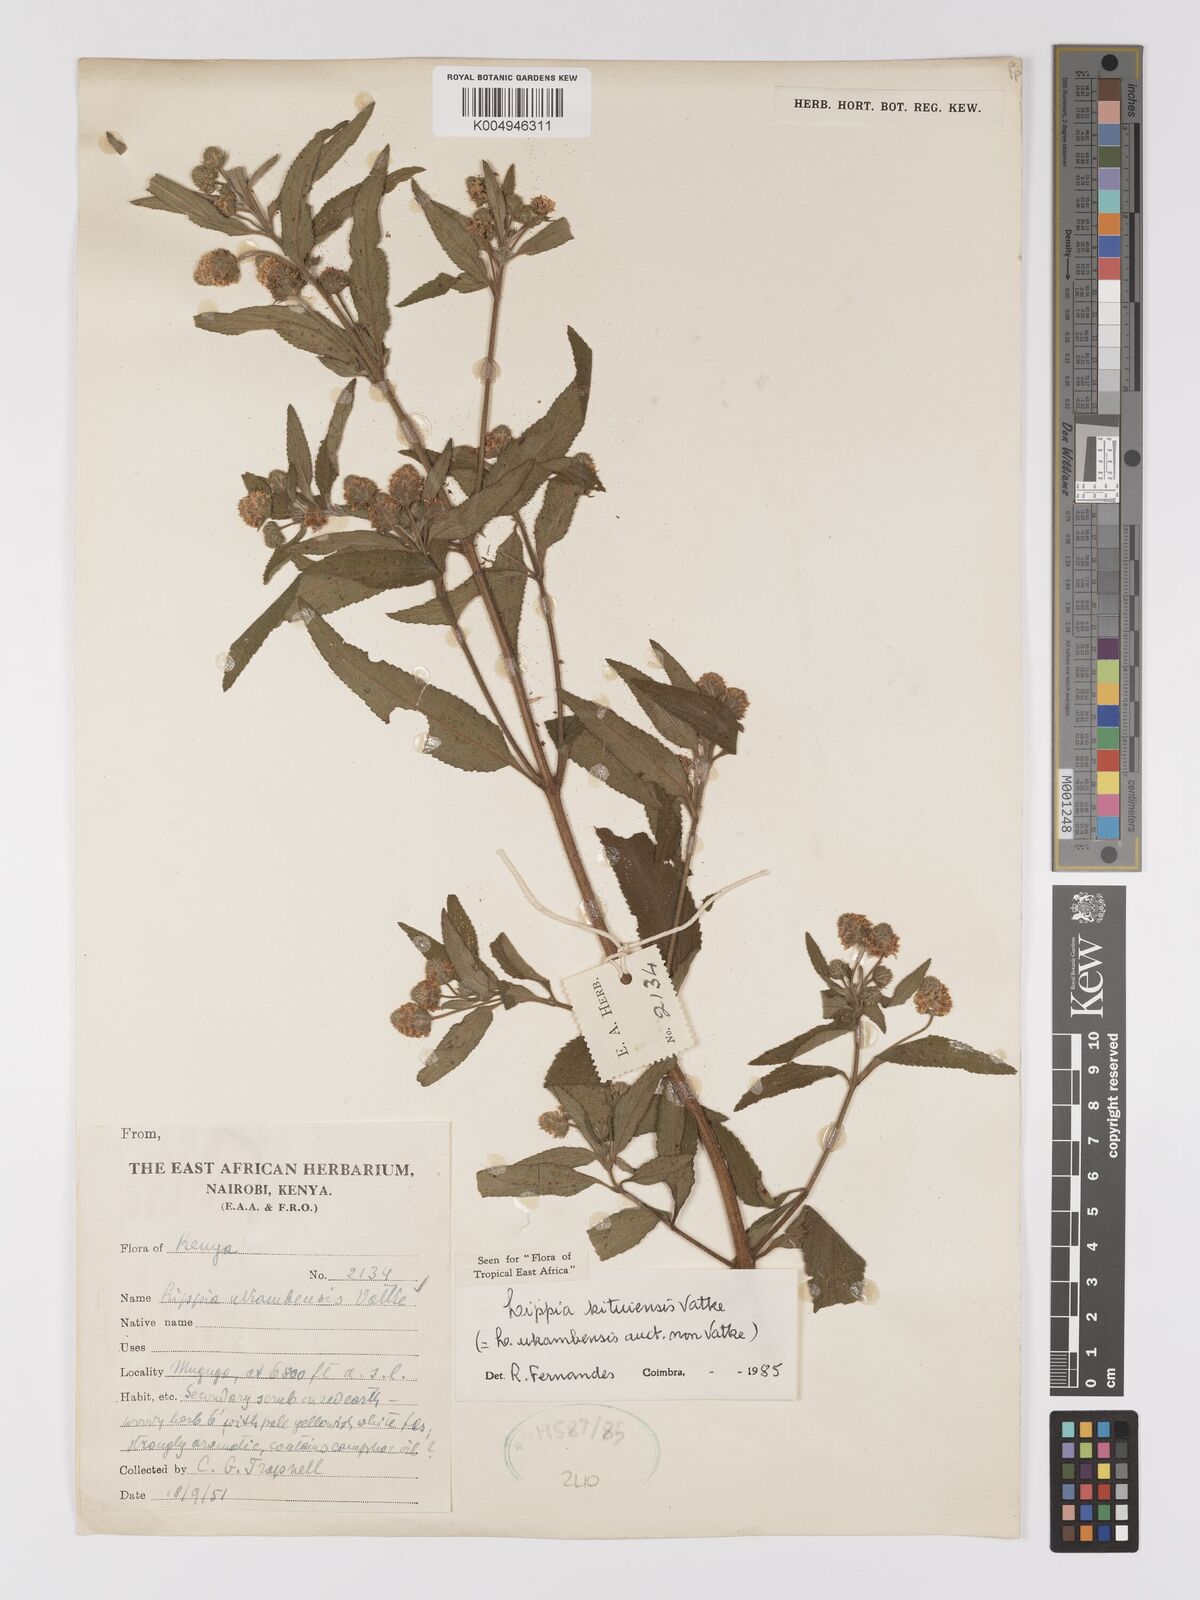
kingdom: Plantae
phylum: Tracheophyta
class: Magnoliopsida
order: Lamiales
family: Verbenaceae
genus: Lippia
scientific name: Lippia kituiensis
